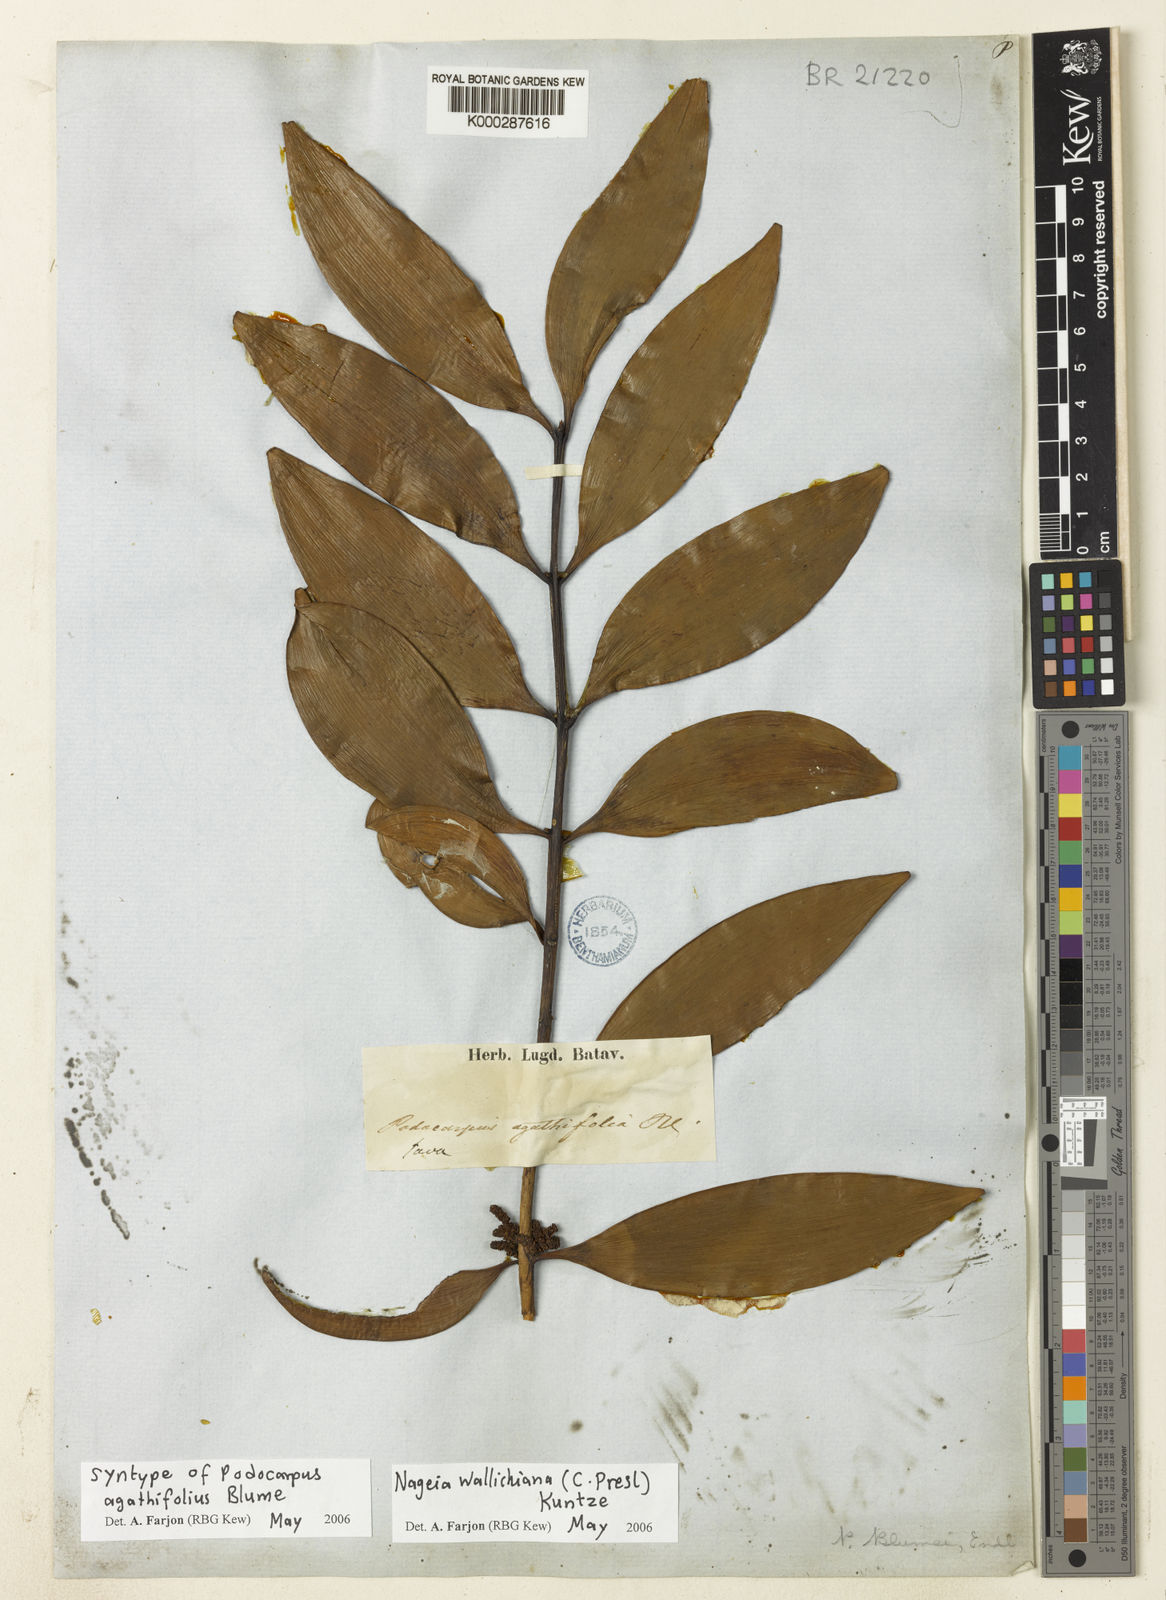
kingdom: Plantae
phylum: Tracheophyta
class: Pinopsida
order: Pinales
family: Podocarpaceae
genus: Nageia
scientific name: Nageia wallichiana
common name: Brown's-pine
